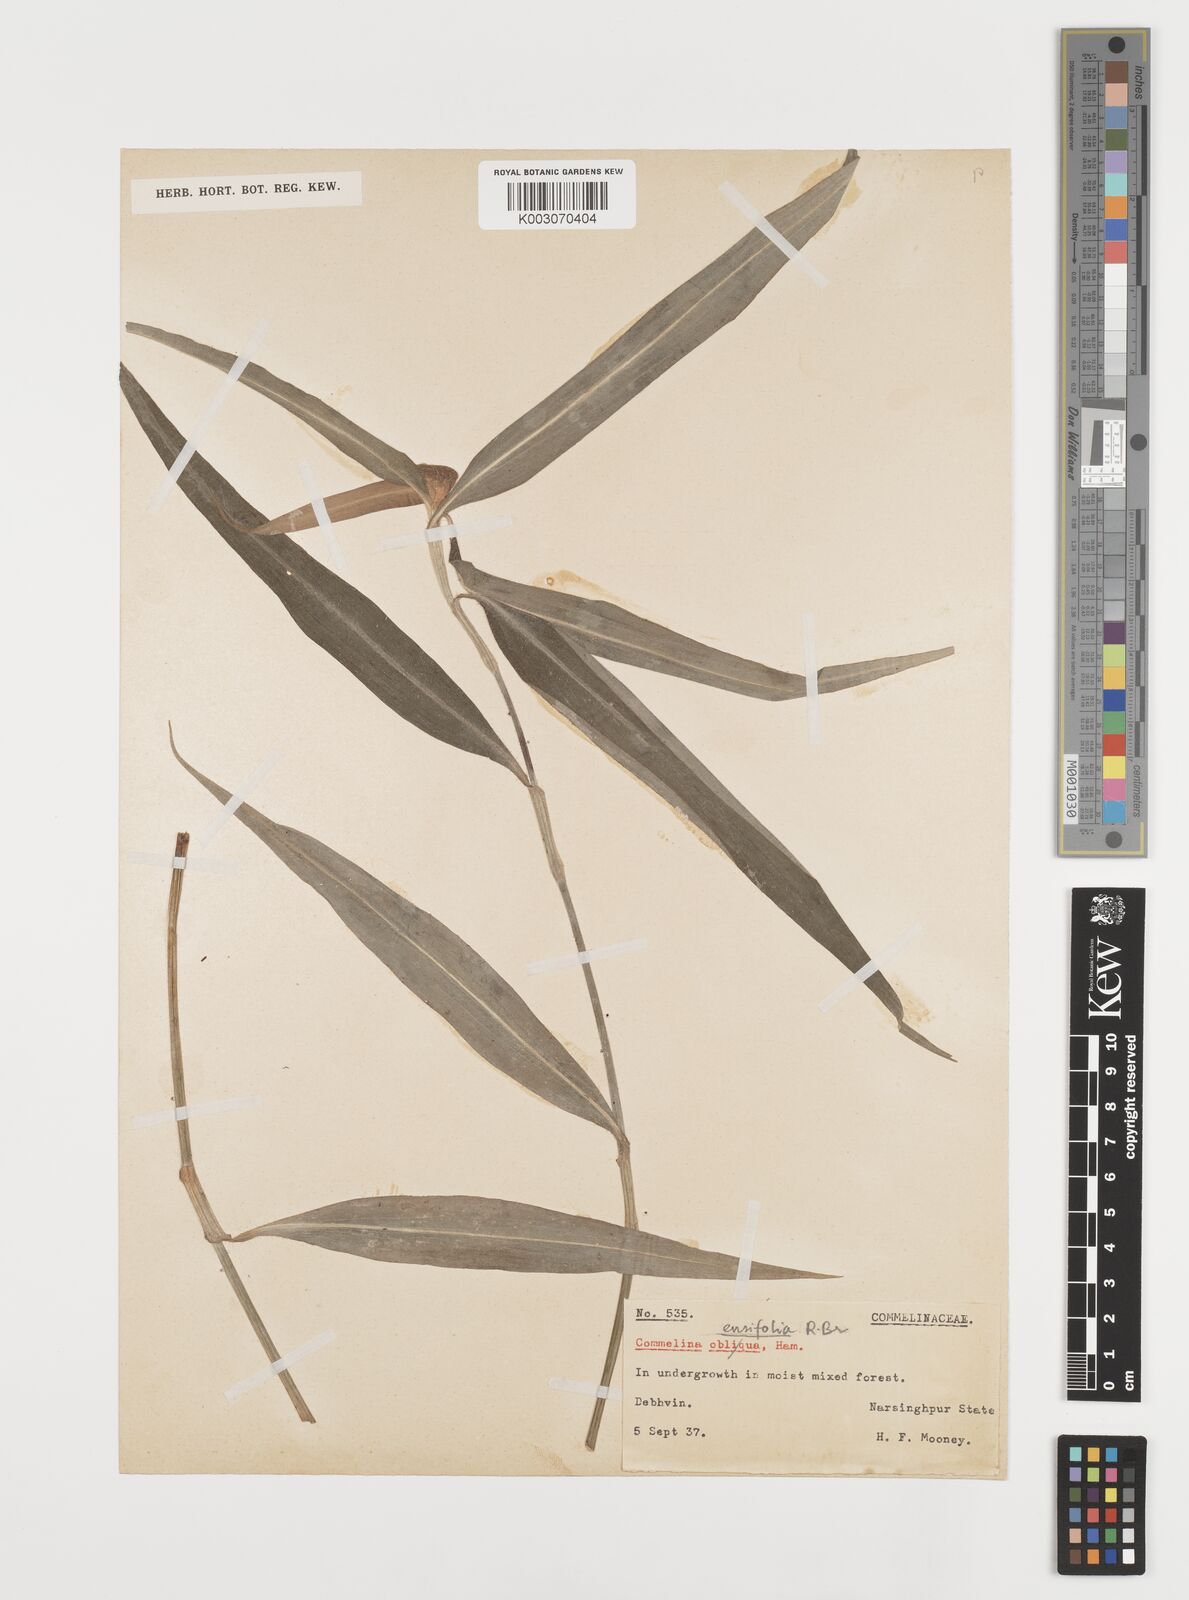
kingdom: Plantae
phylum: Tracheophyta
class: Liliopsida
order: Commelinales
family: Commelinaceae
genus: Commelina
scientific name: Commelina ensifolia
